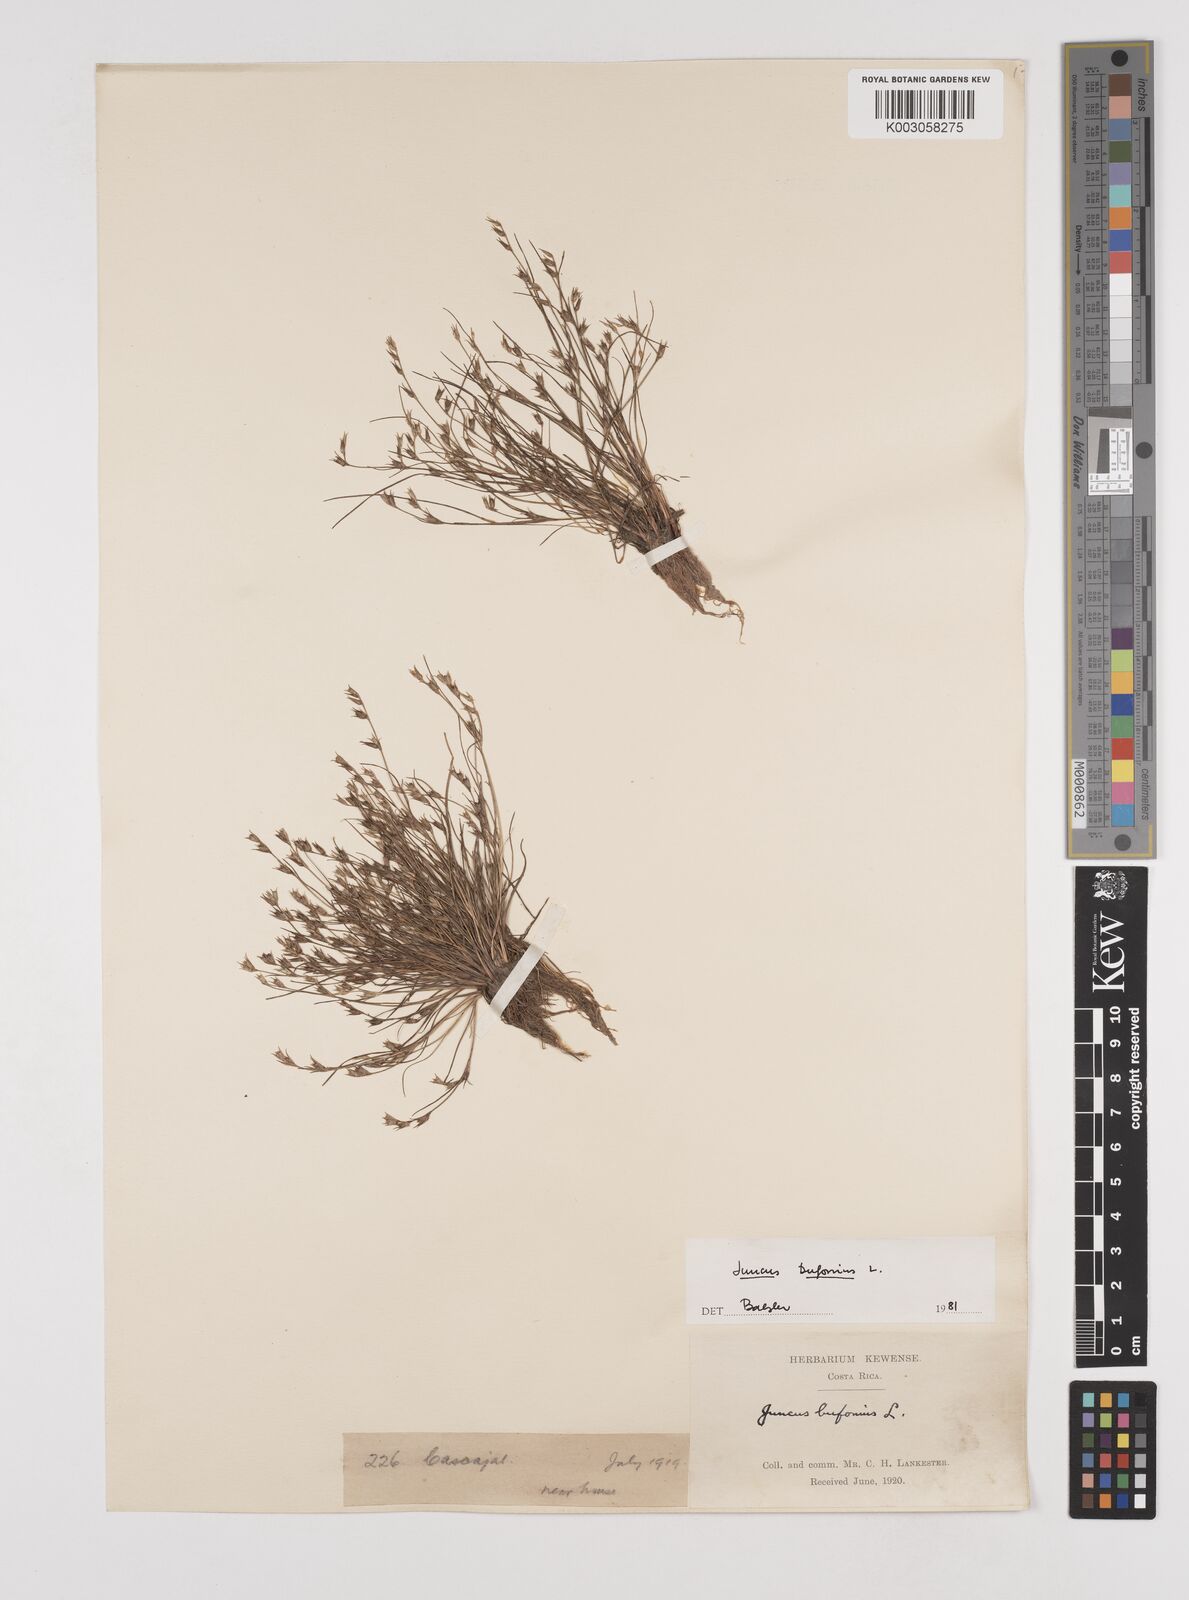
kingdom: Plantae
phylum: Tracheophyta
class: Liliopsida
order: Poales
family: Juncaceae
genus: Juncus
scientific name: Juncus bufonius
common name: Toad rush
